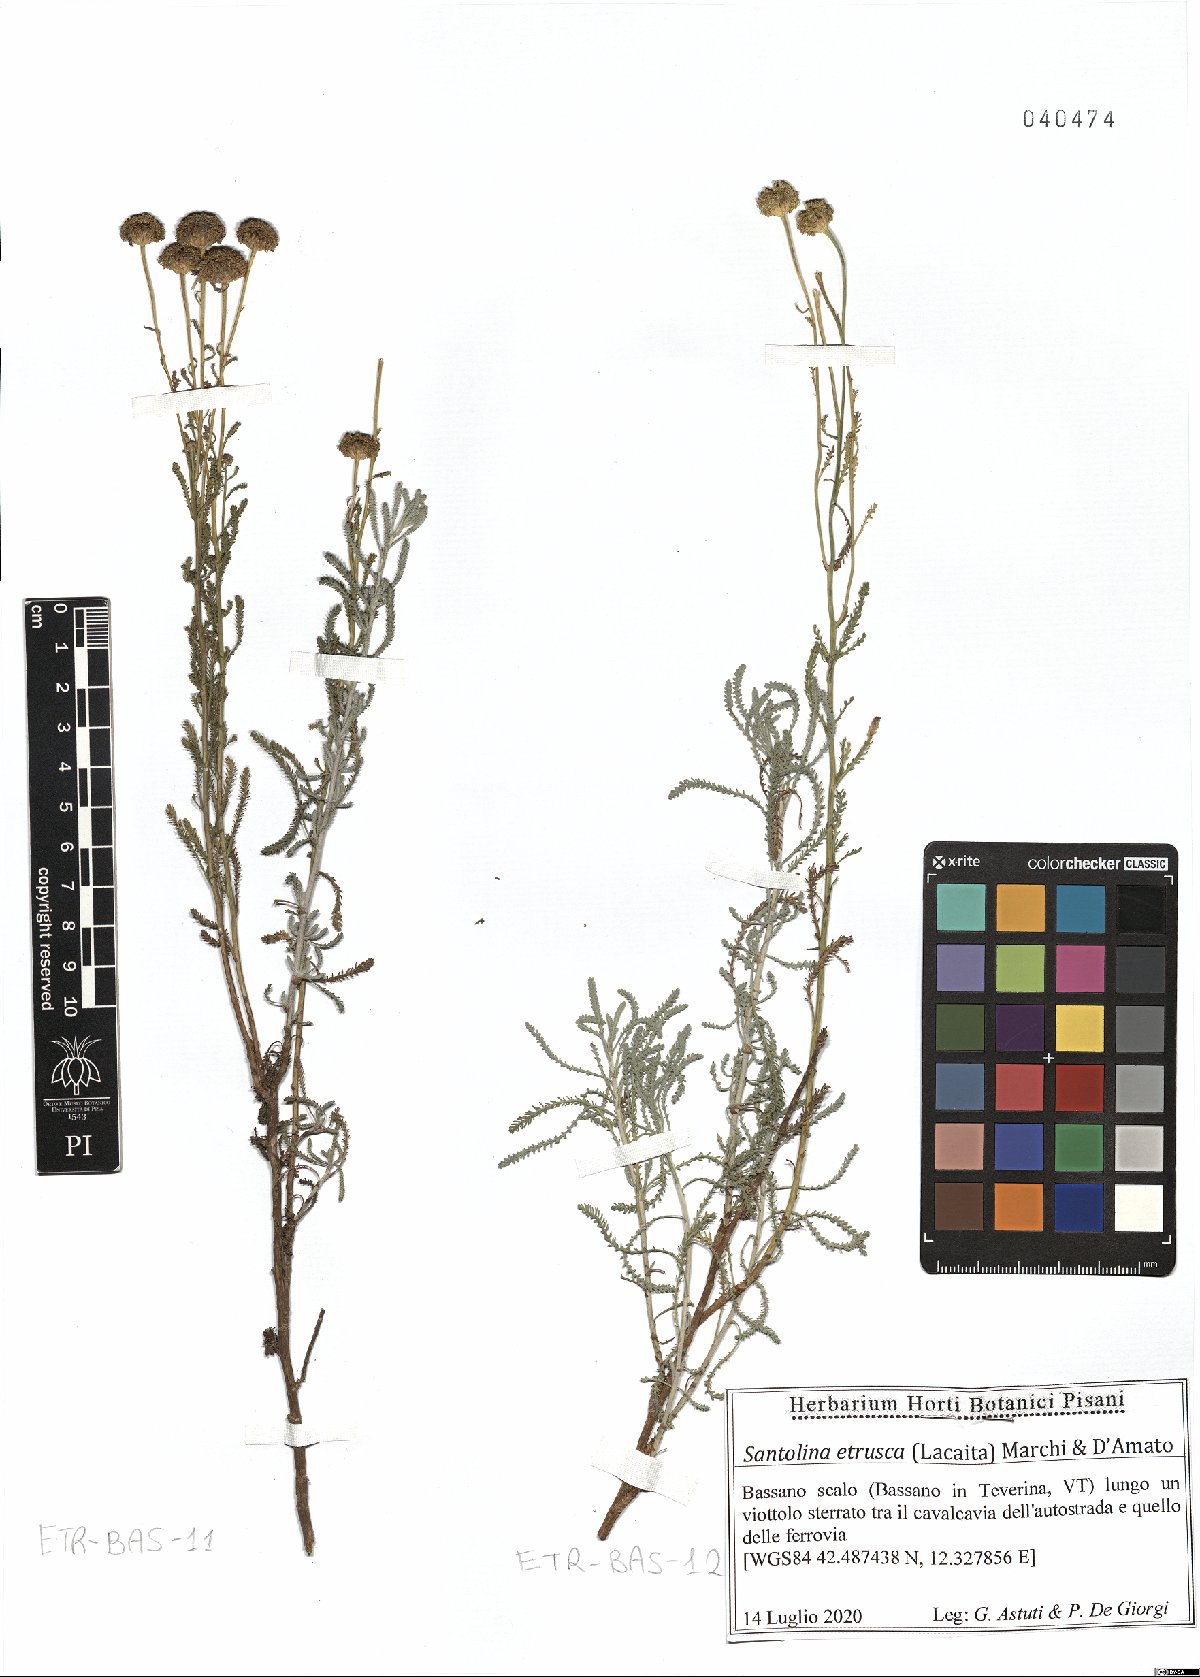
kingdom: Plantae
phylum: Tracheophyta
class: Magnoliopsida
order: Asterales
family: Asteraceae
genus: Santolina
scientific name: Santolina etrusca
